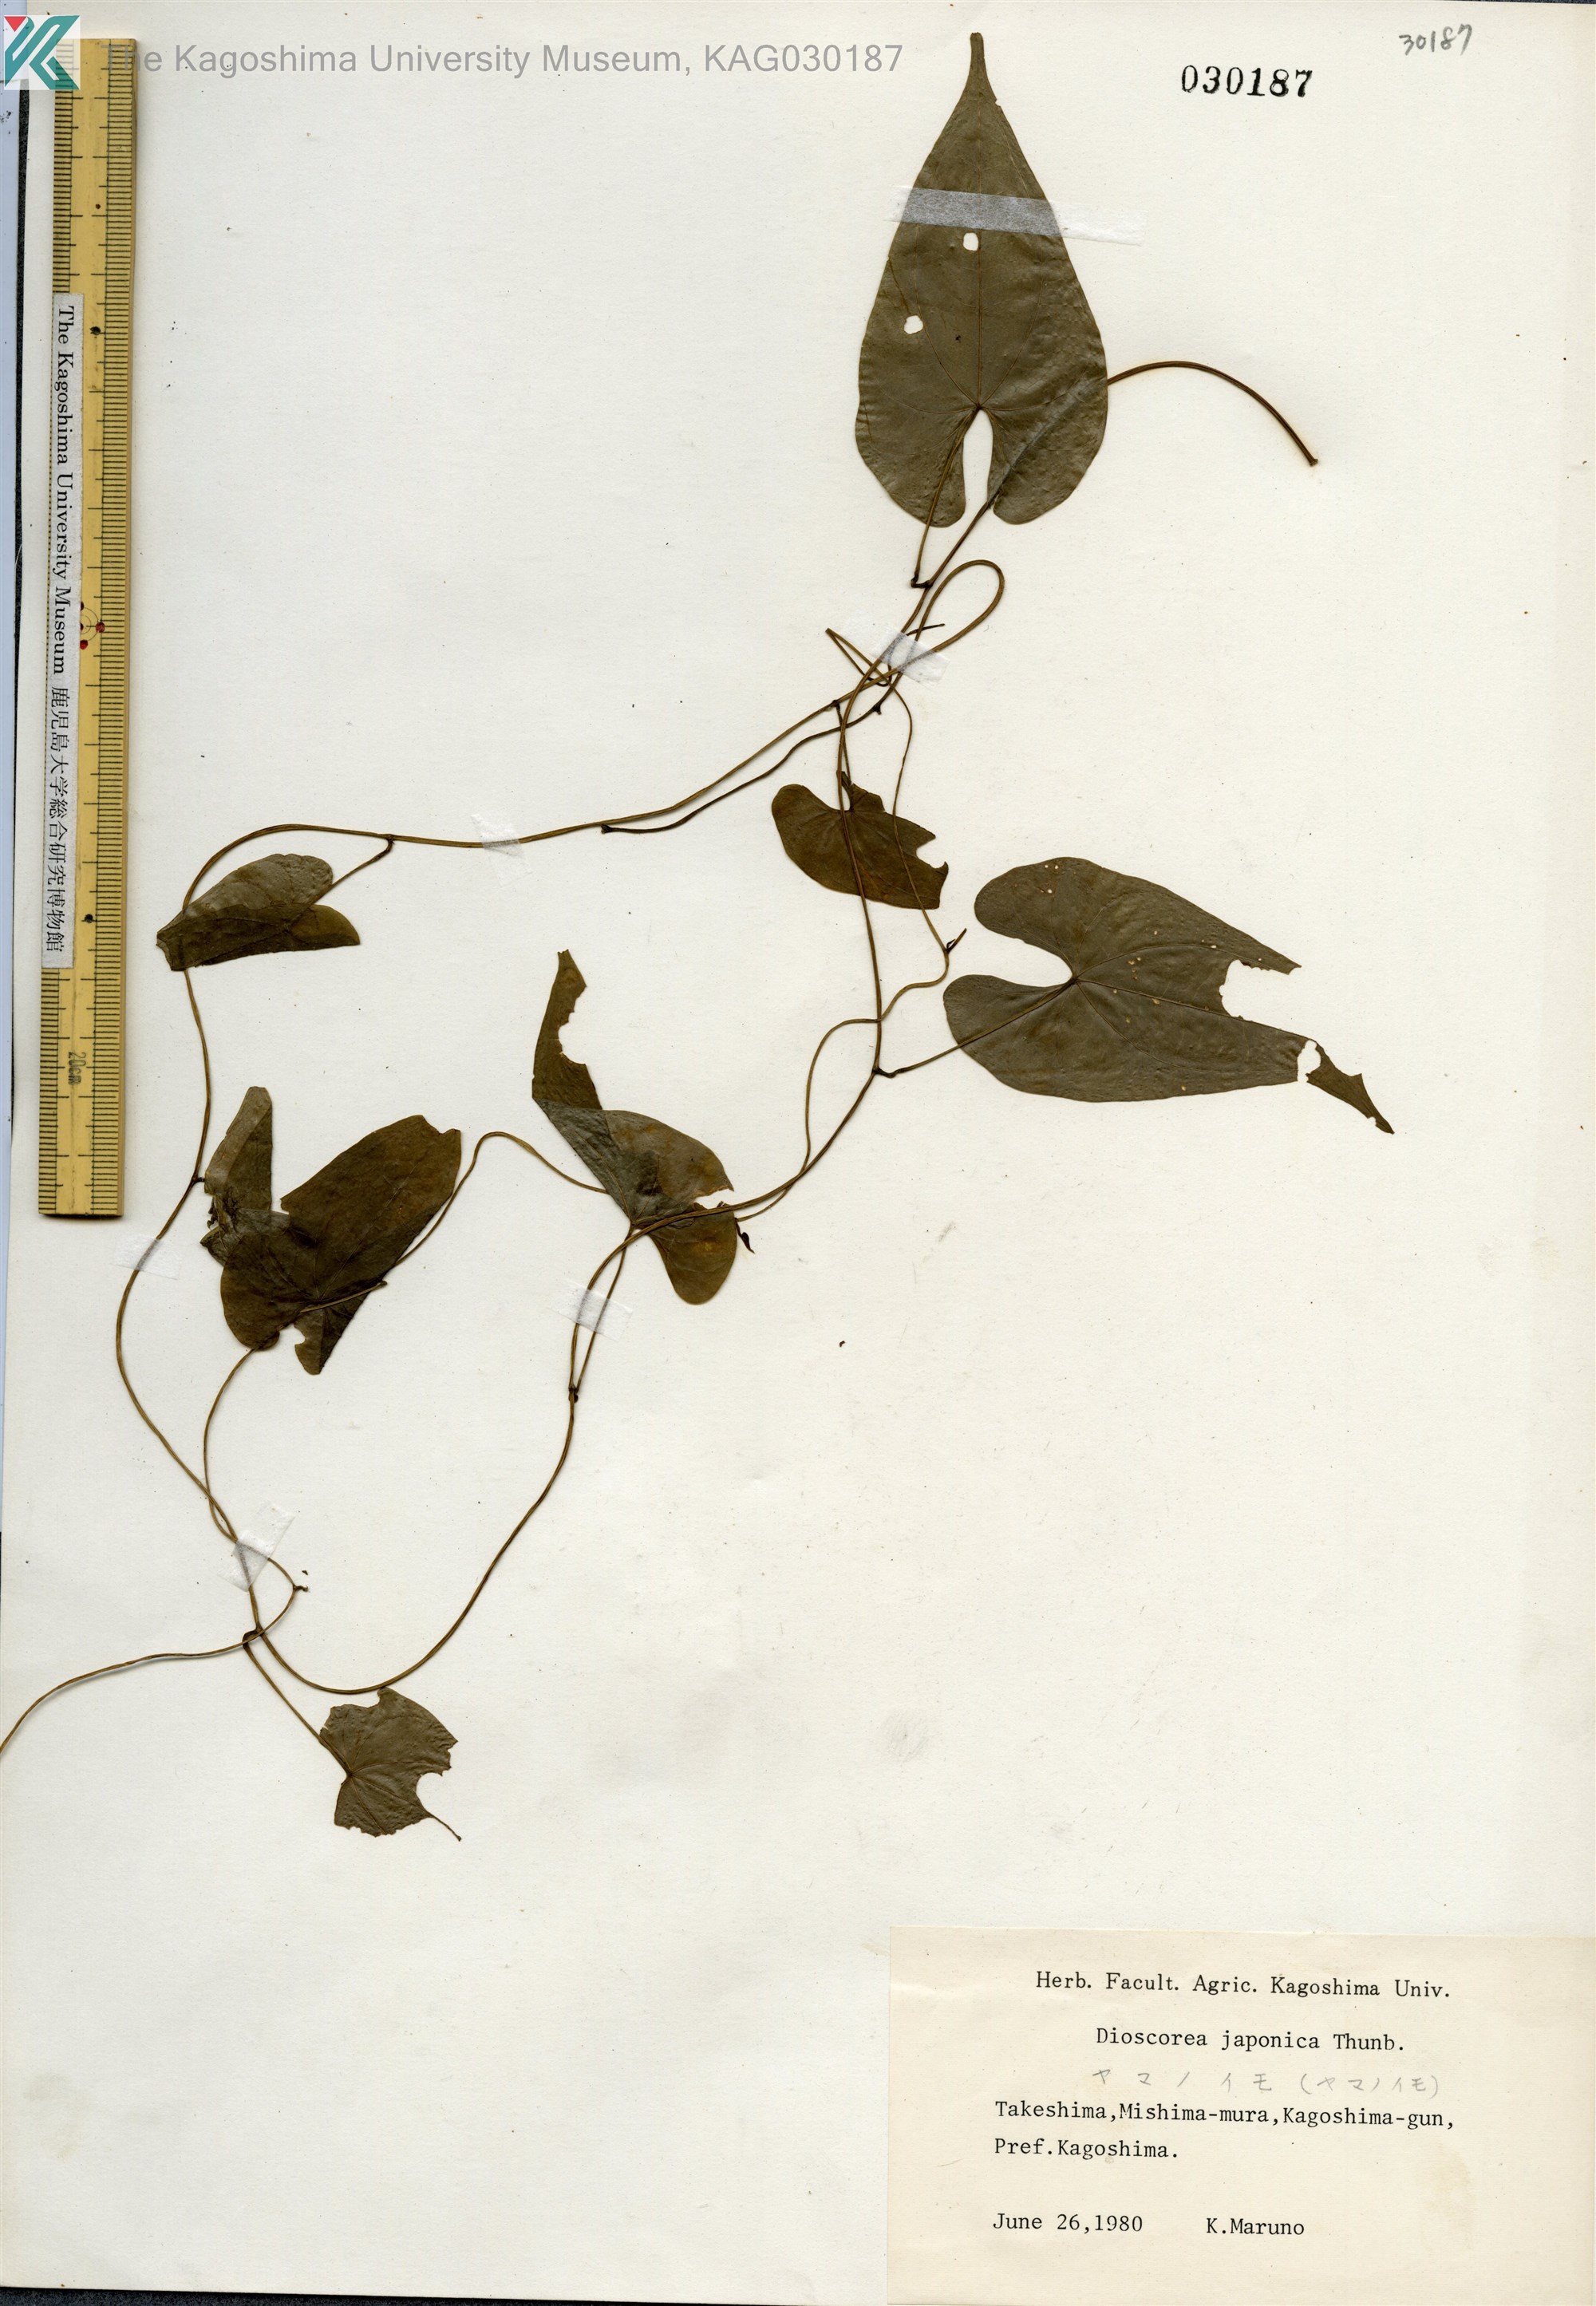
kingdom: Plantae
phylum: Tracheophyta
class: Liliopsida
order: Dioscoreales
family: Dioscoreaceae
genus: Dioscorea
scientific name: Dioscorea japonica
